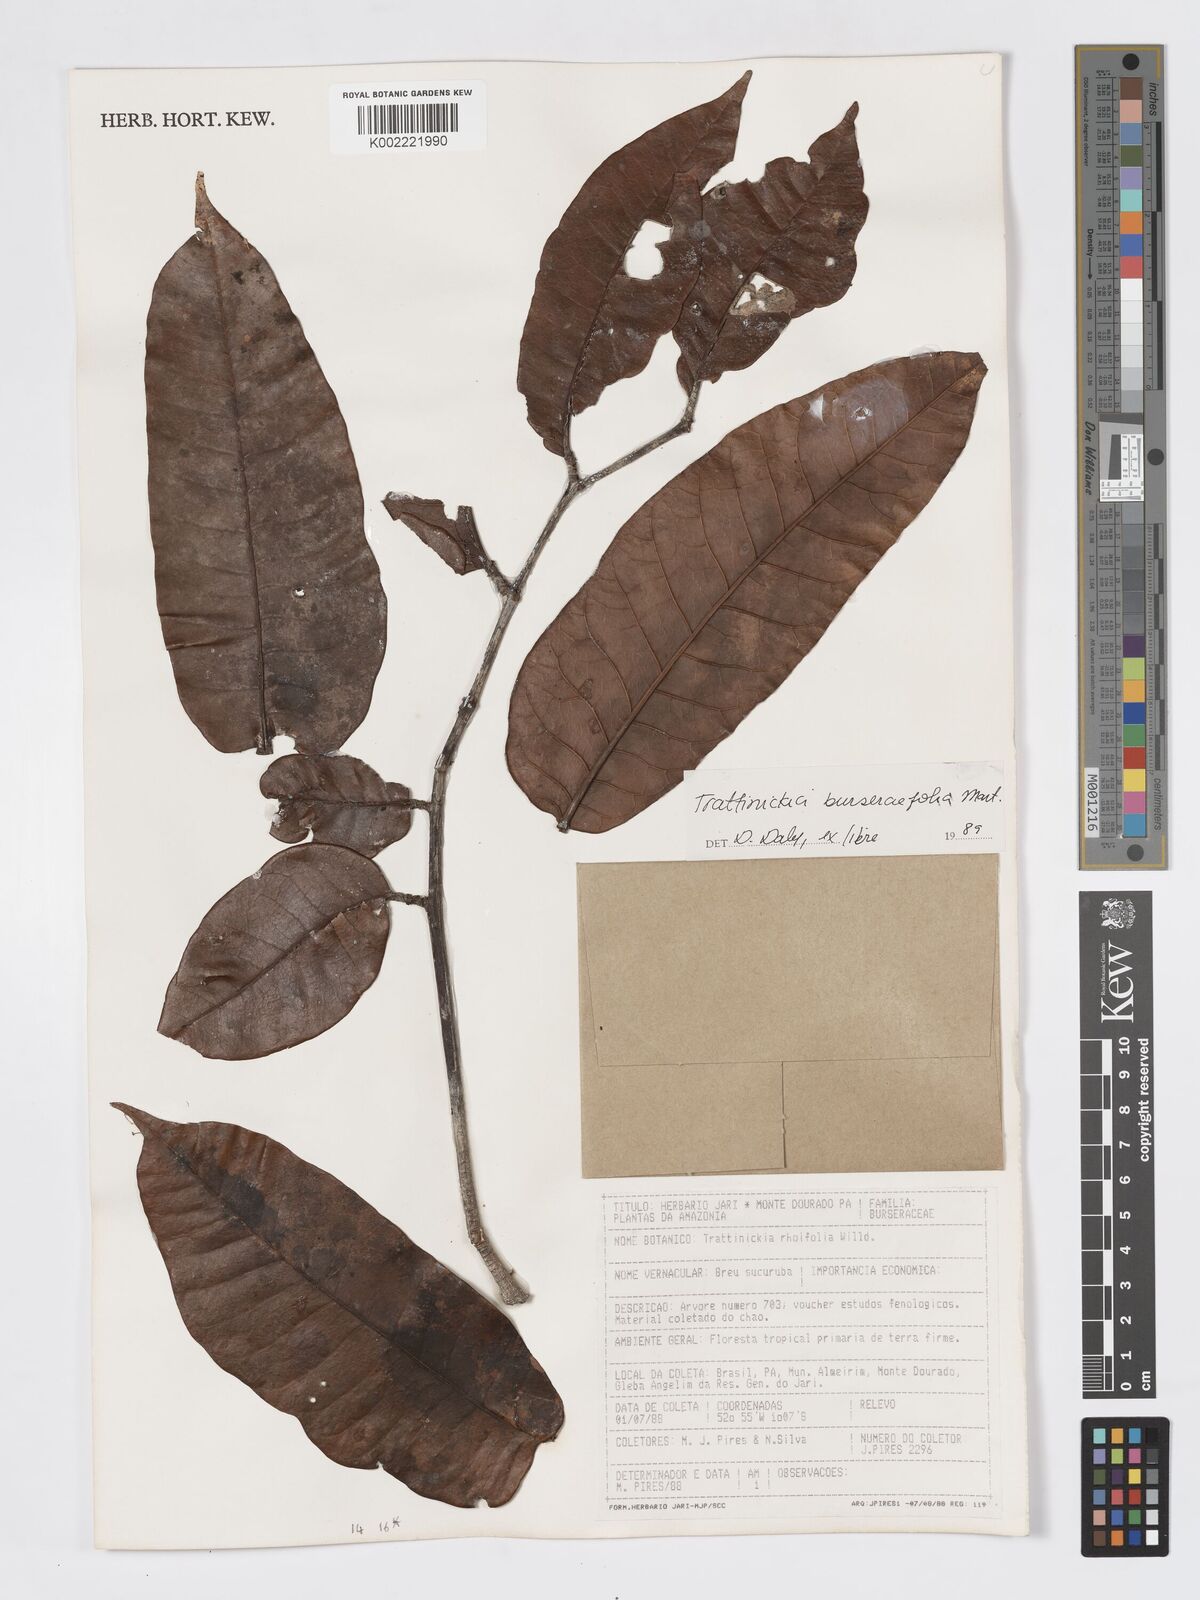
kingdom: Plantae
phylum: Tracheophyta
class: Magnoliopsida
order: Sapindales
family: Burseraceae
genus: Trattinnickia
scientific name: Trattinnickia burserifolia
